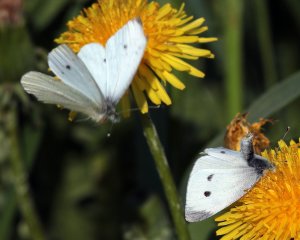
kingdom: Animalia
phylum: Arthropoda
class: Insecta
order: Lepidoptera
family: Pieridae
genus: Pieris
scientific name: Pieris rapae
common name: Cabbage White
